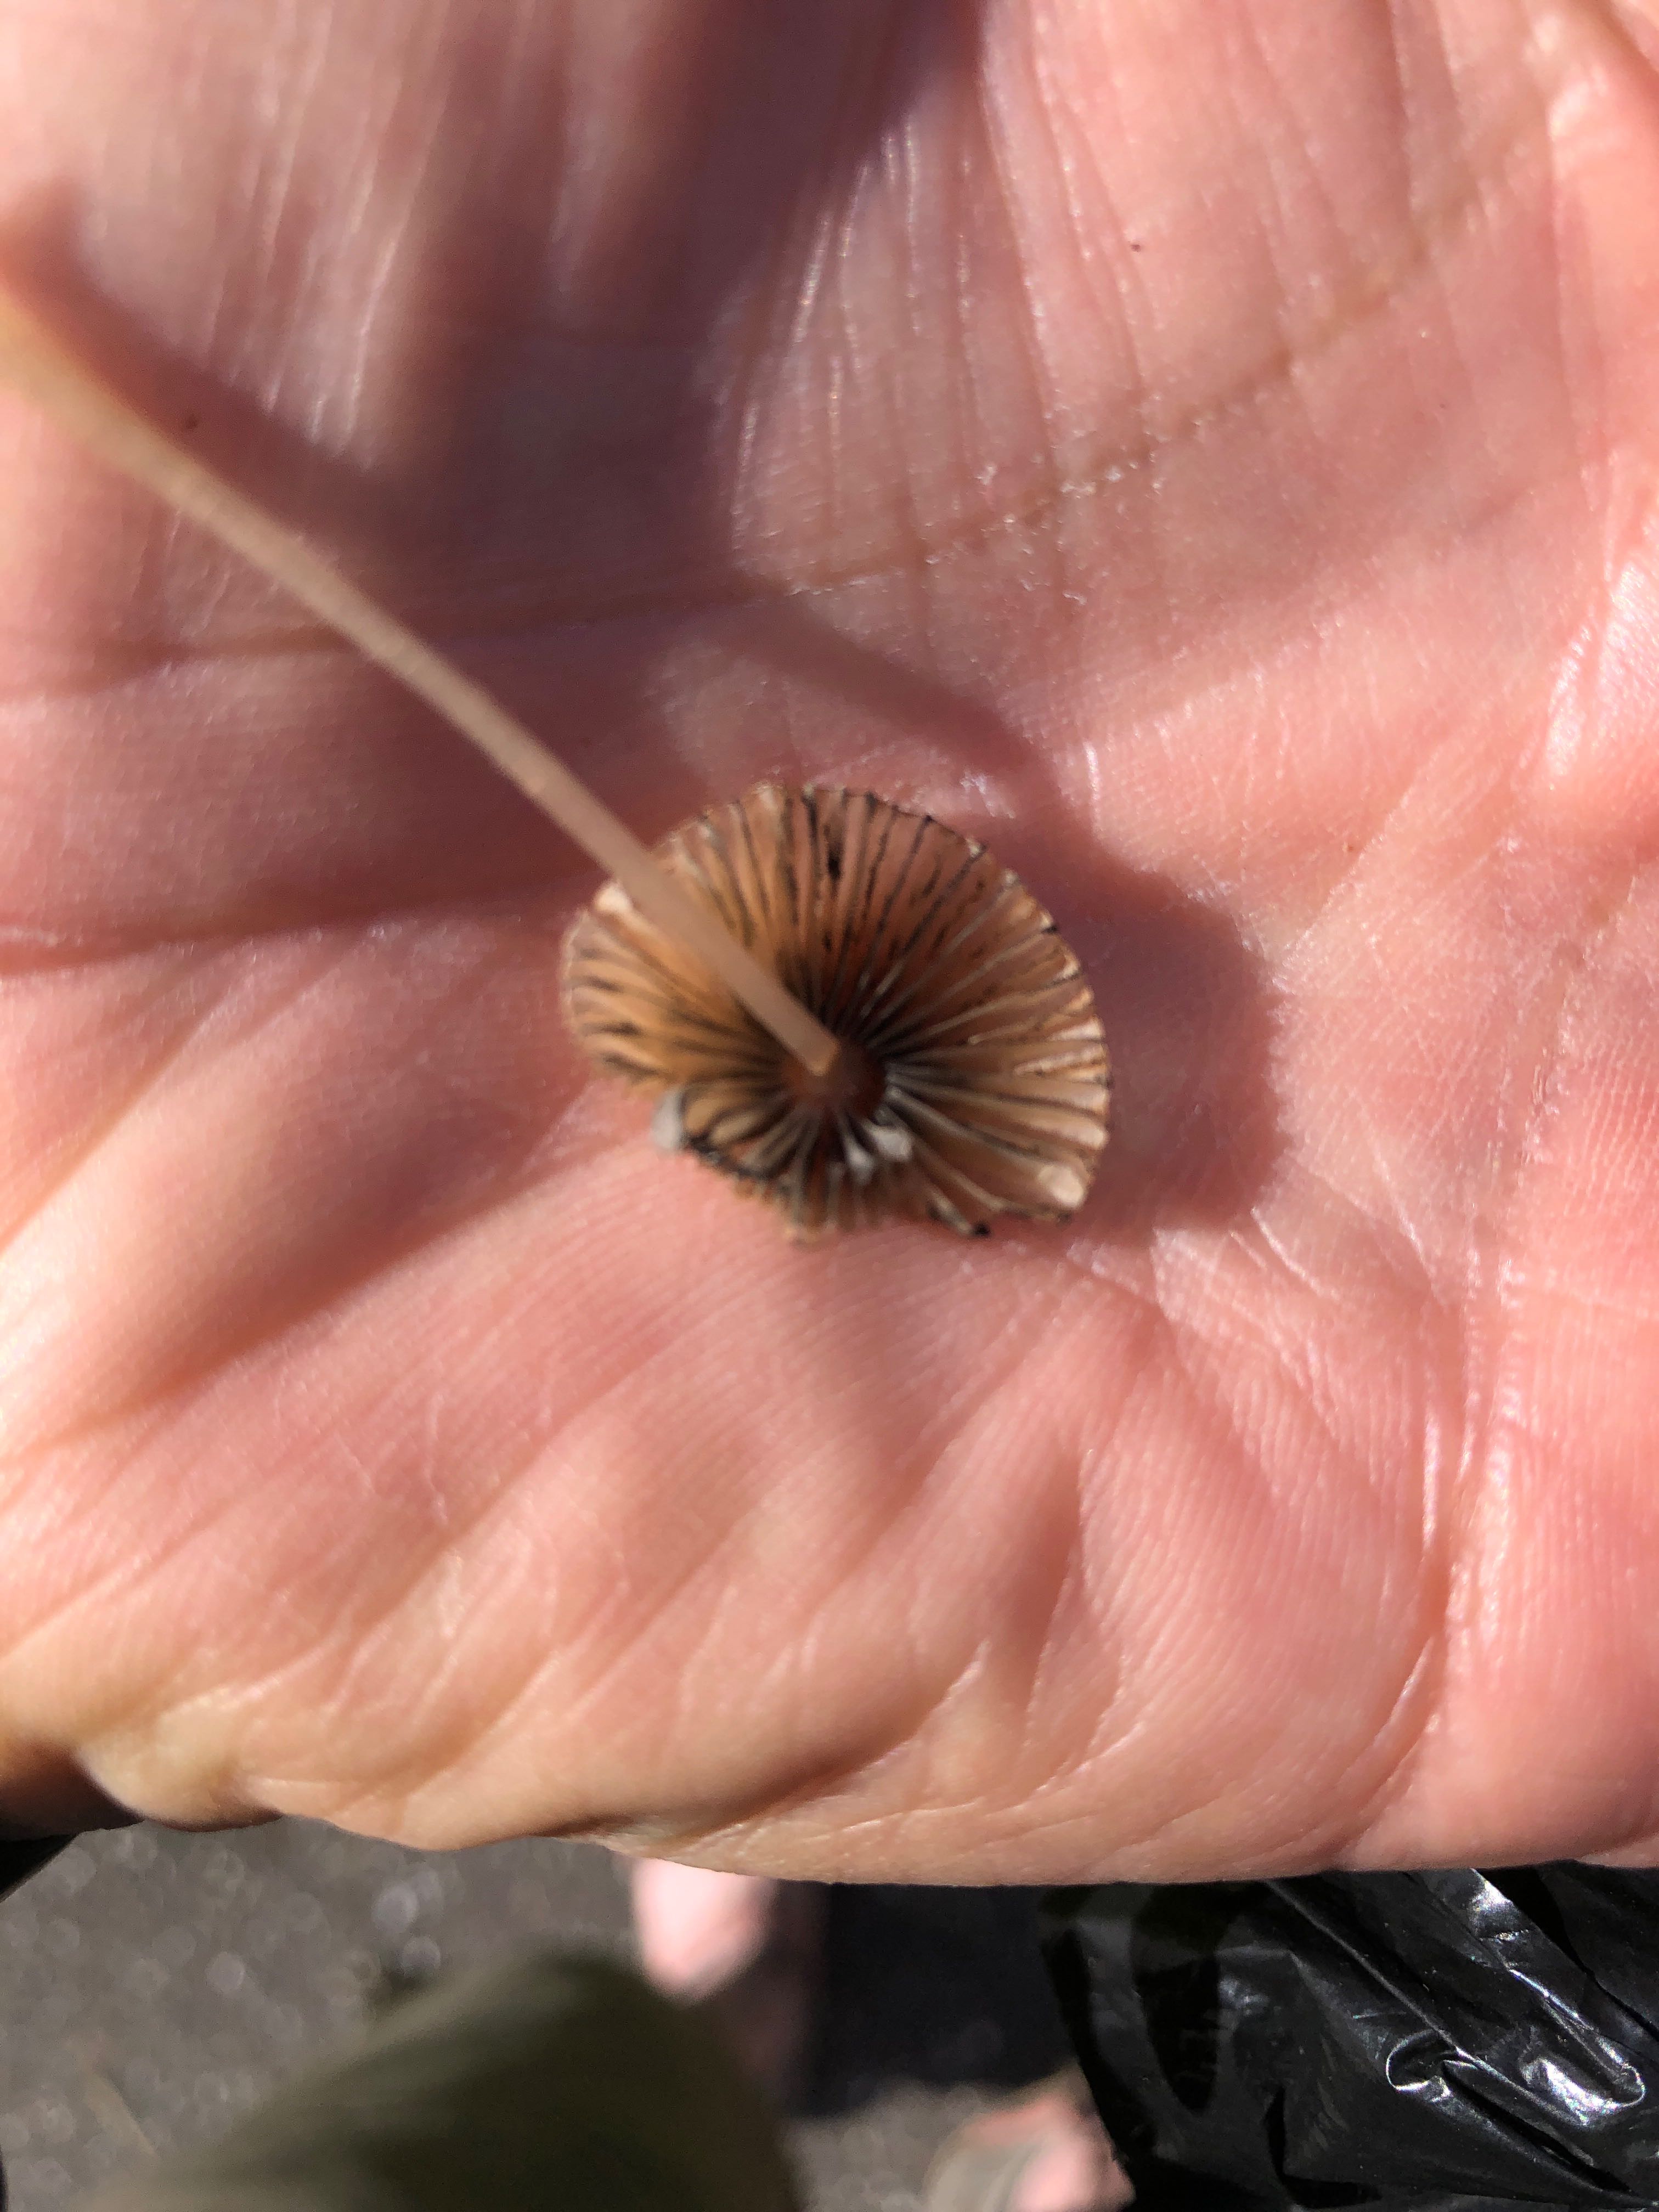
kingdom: Fungi
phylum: Basidiomycota
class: Agaricomycetes
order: Agaricales
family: Psathyrellaceae
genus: Parasola
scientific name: Parasola
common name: hjulhat
